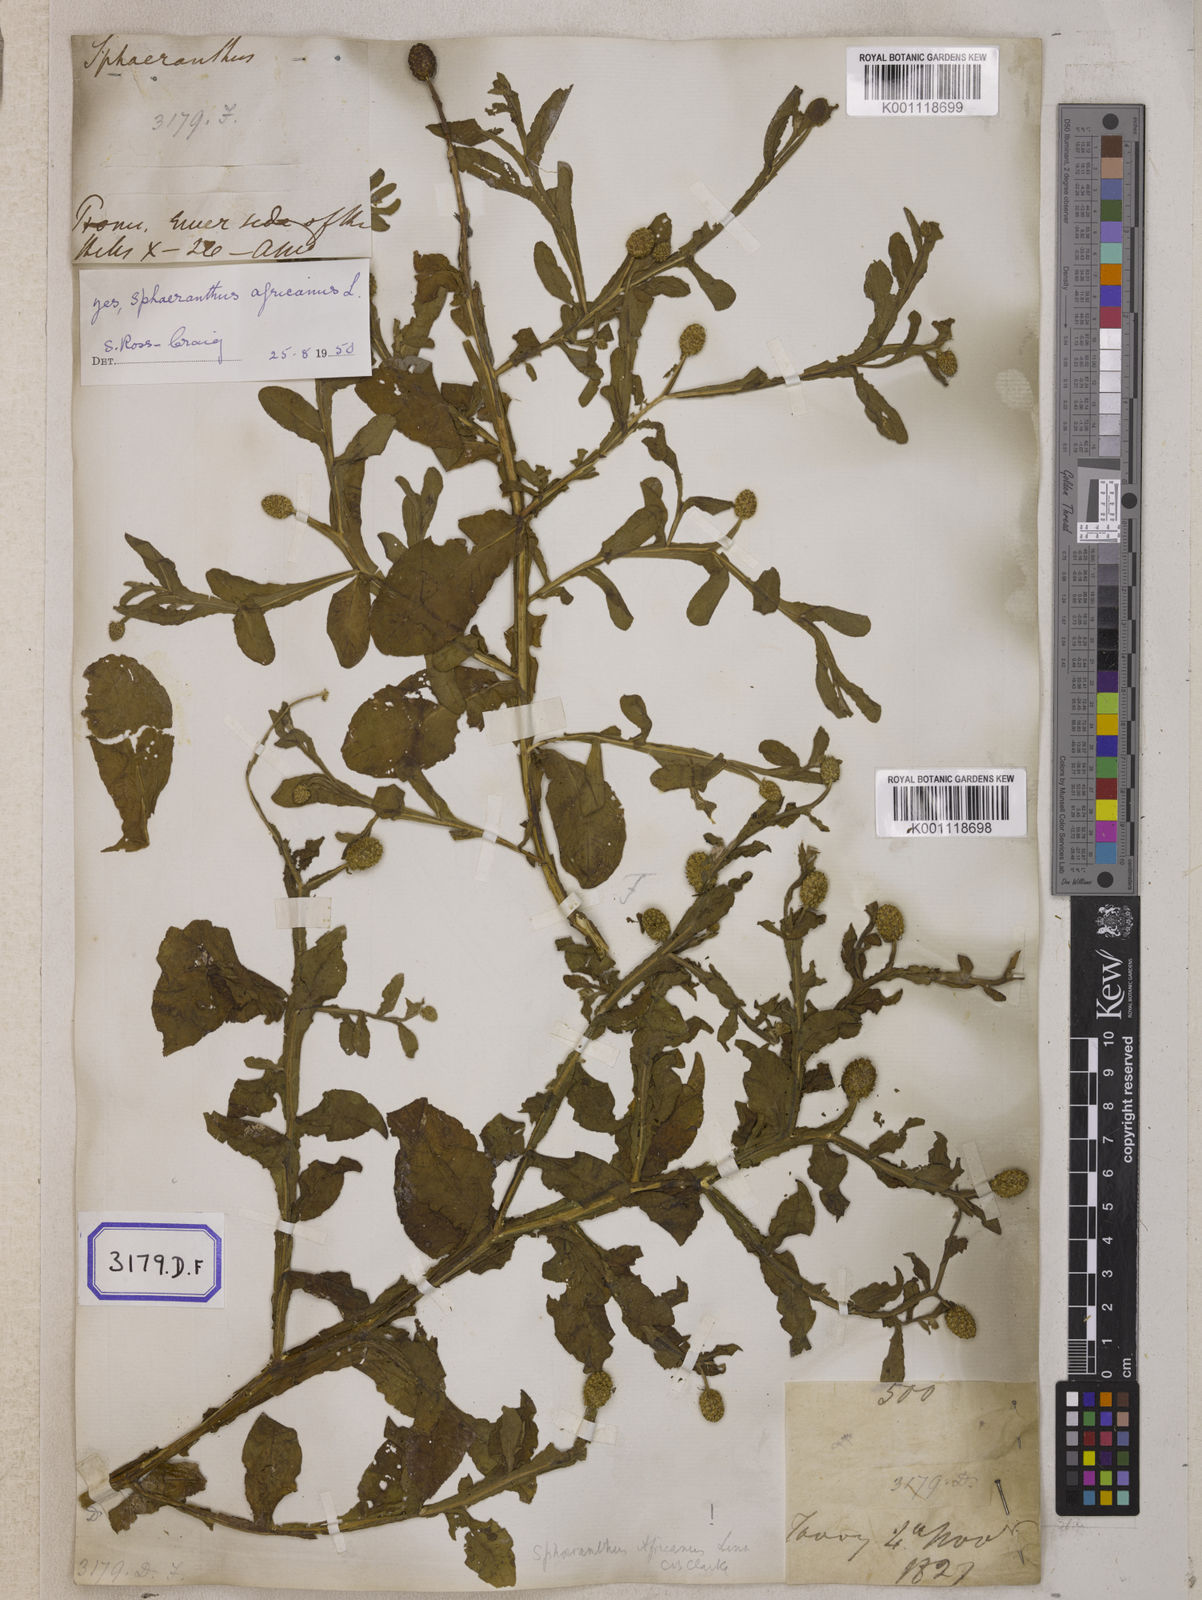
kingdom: Plantae
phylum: Tracheophyta
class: Magnoliopsida
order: Asterales
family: Asteraceae
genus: Sphaeranthus
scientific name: Sphaeranthus senegalensis
